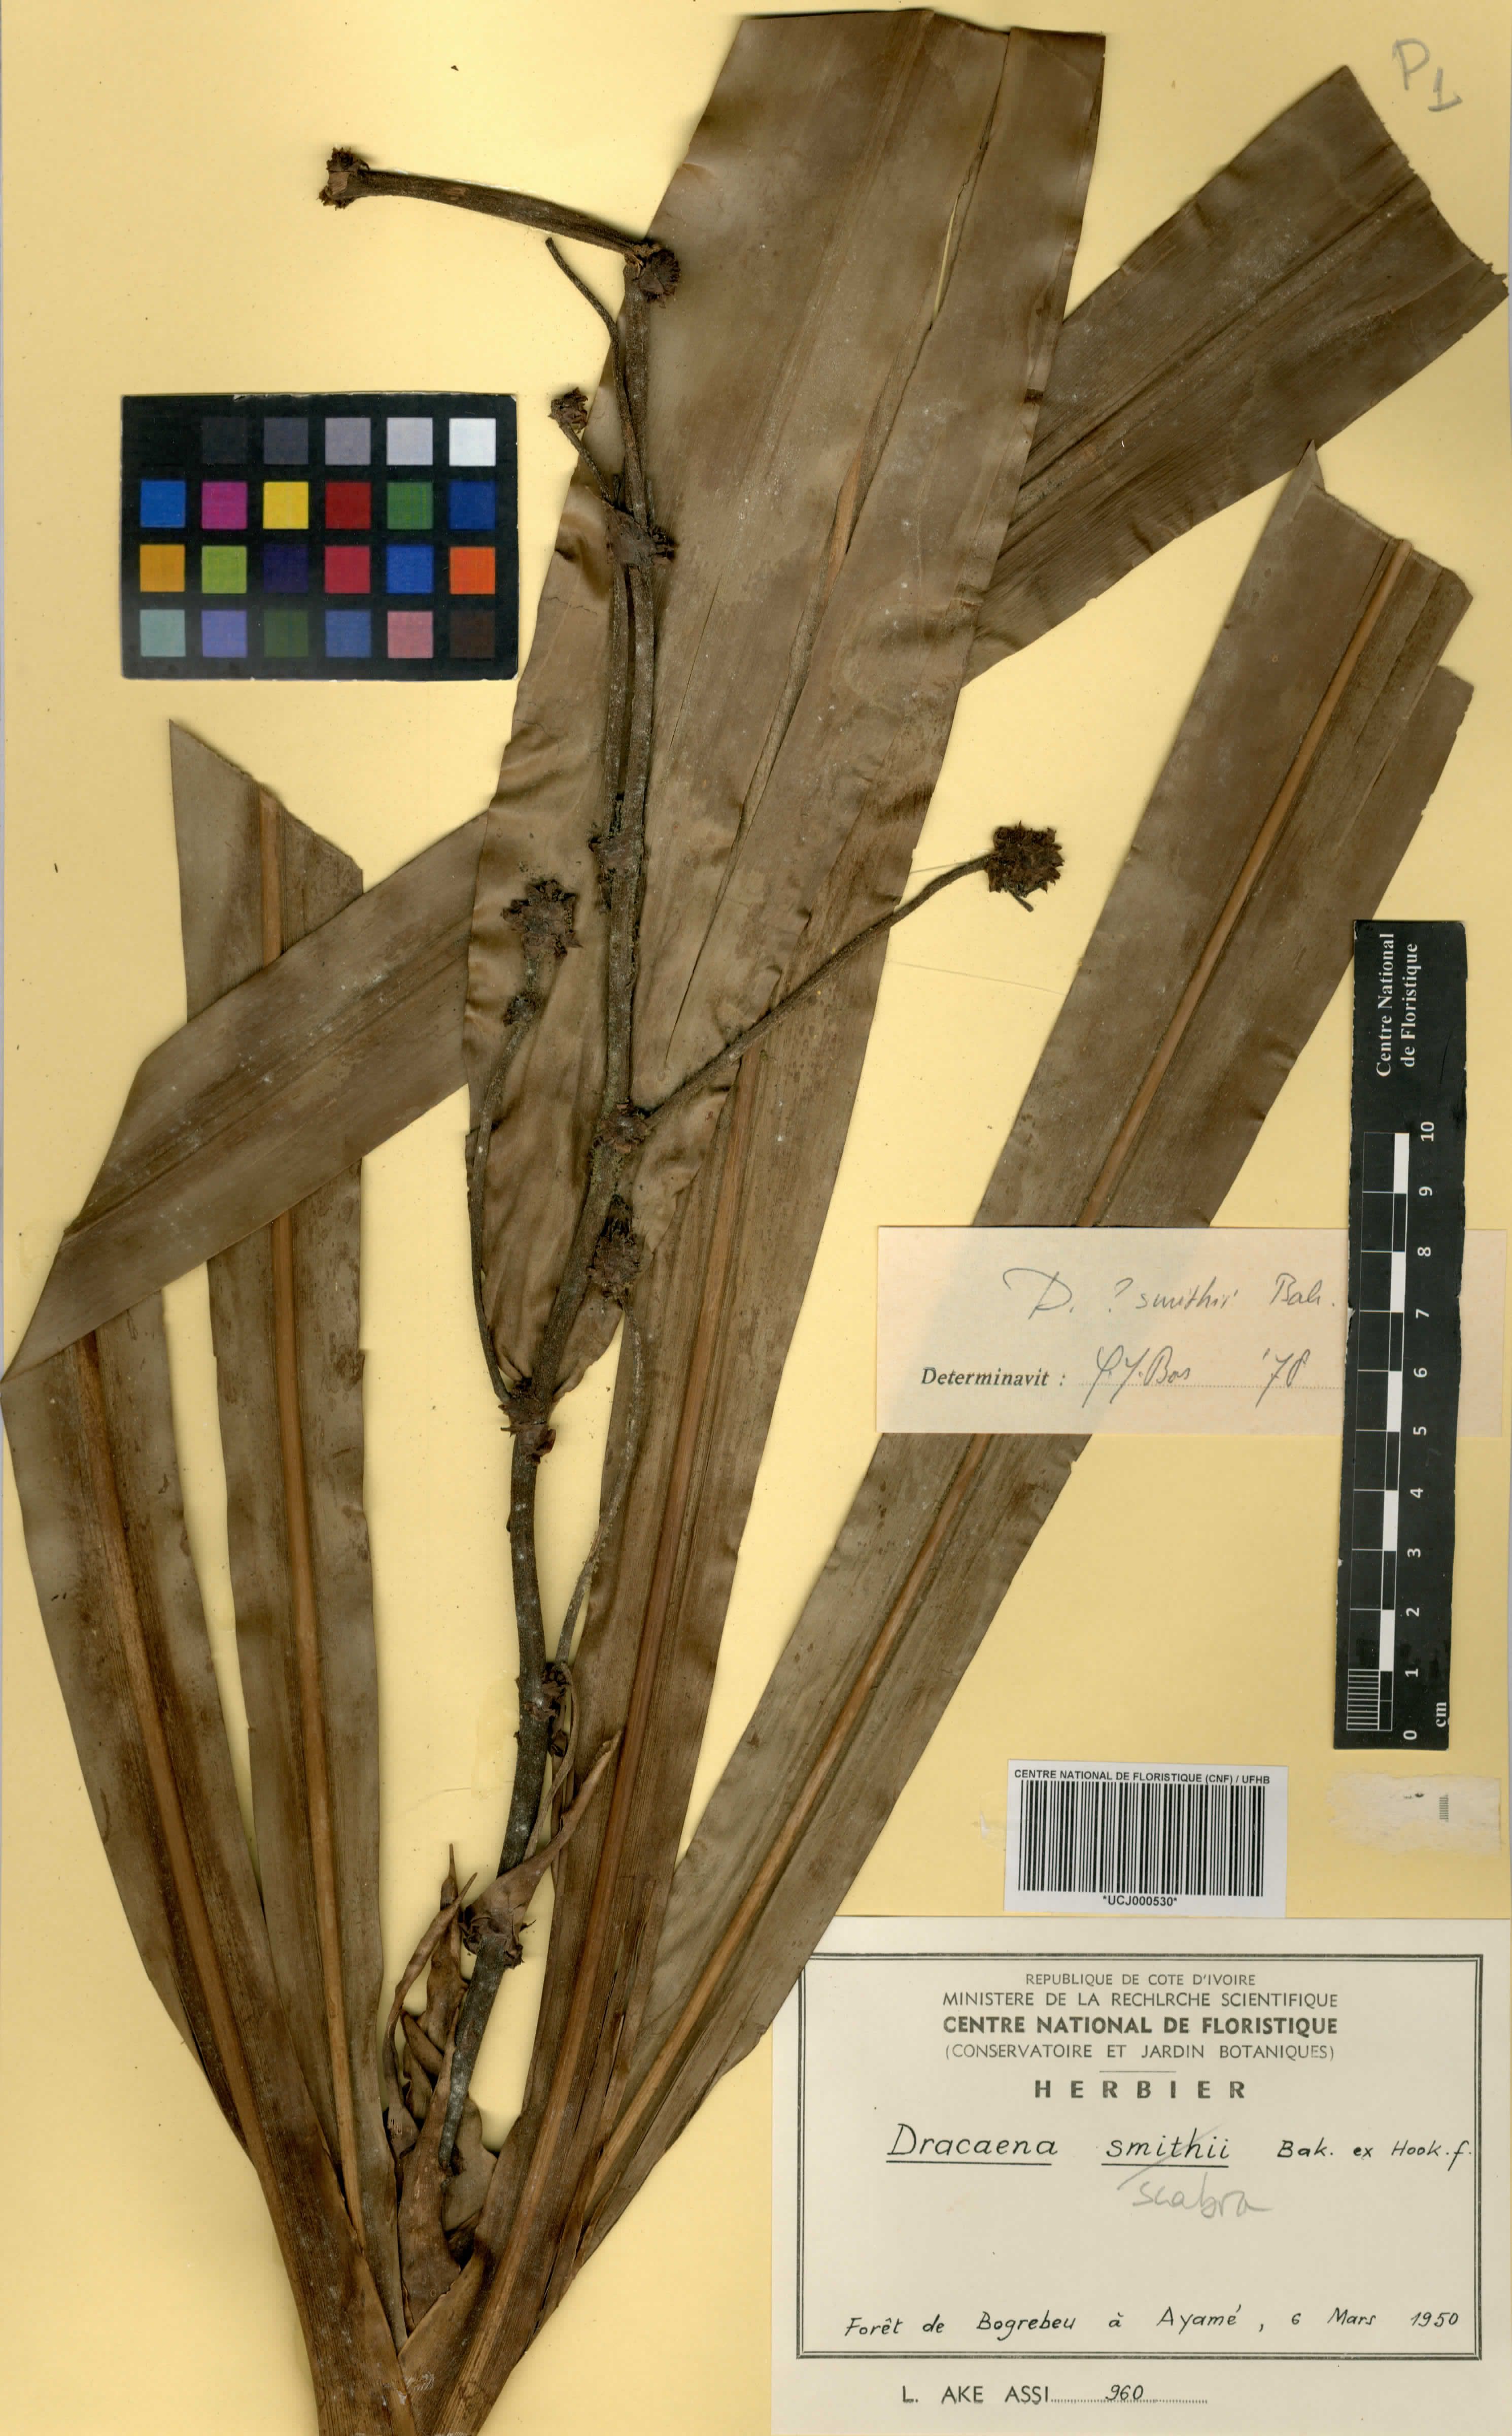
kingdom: Plantae
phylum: Tracheophyta
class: Liliopsida
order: Asparagales
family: Asparagaceae
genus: Dracaena
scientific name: Dracaena fragrans
